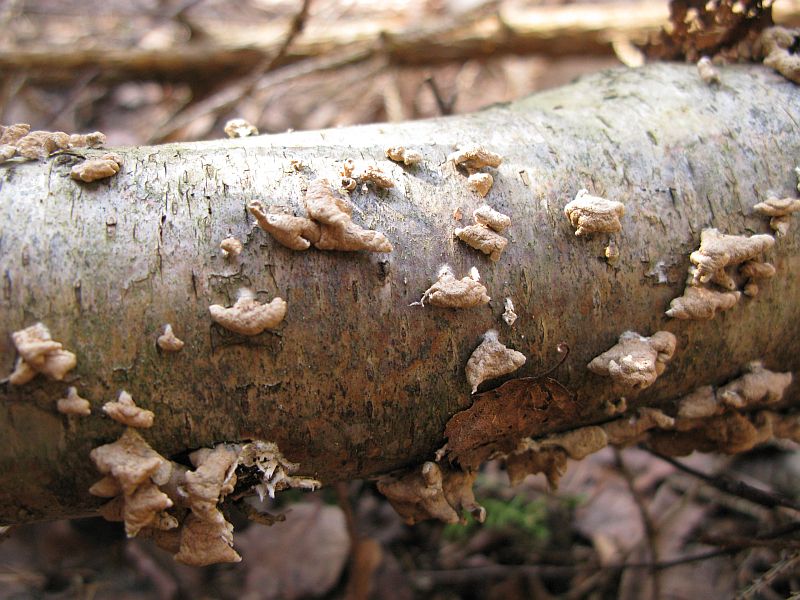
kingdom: Fungi
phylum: Basidiomycota
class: Agaricomycetes
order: Amylocorticiales
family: Amylocorticiaceae
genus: Plicaturopsis
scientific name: Plicaturopsis crispa
